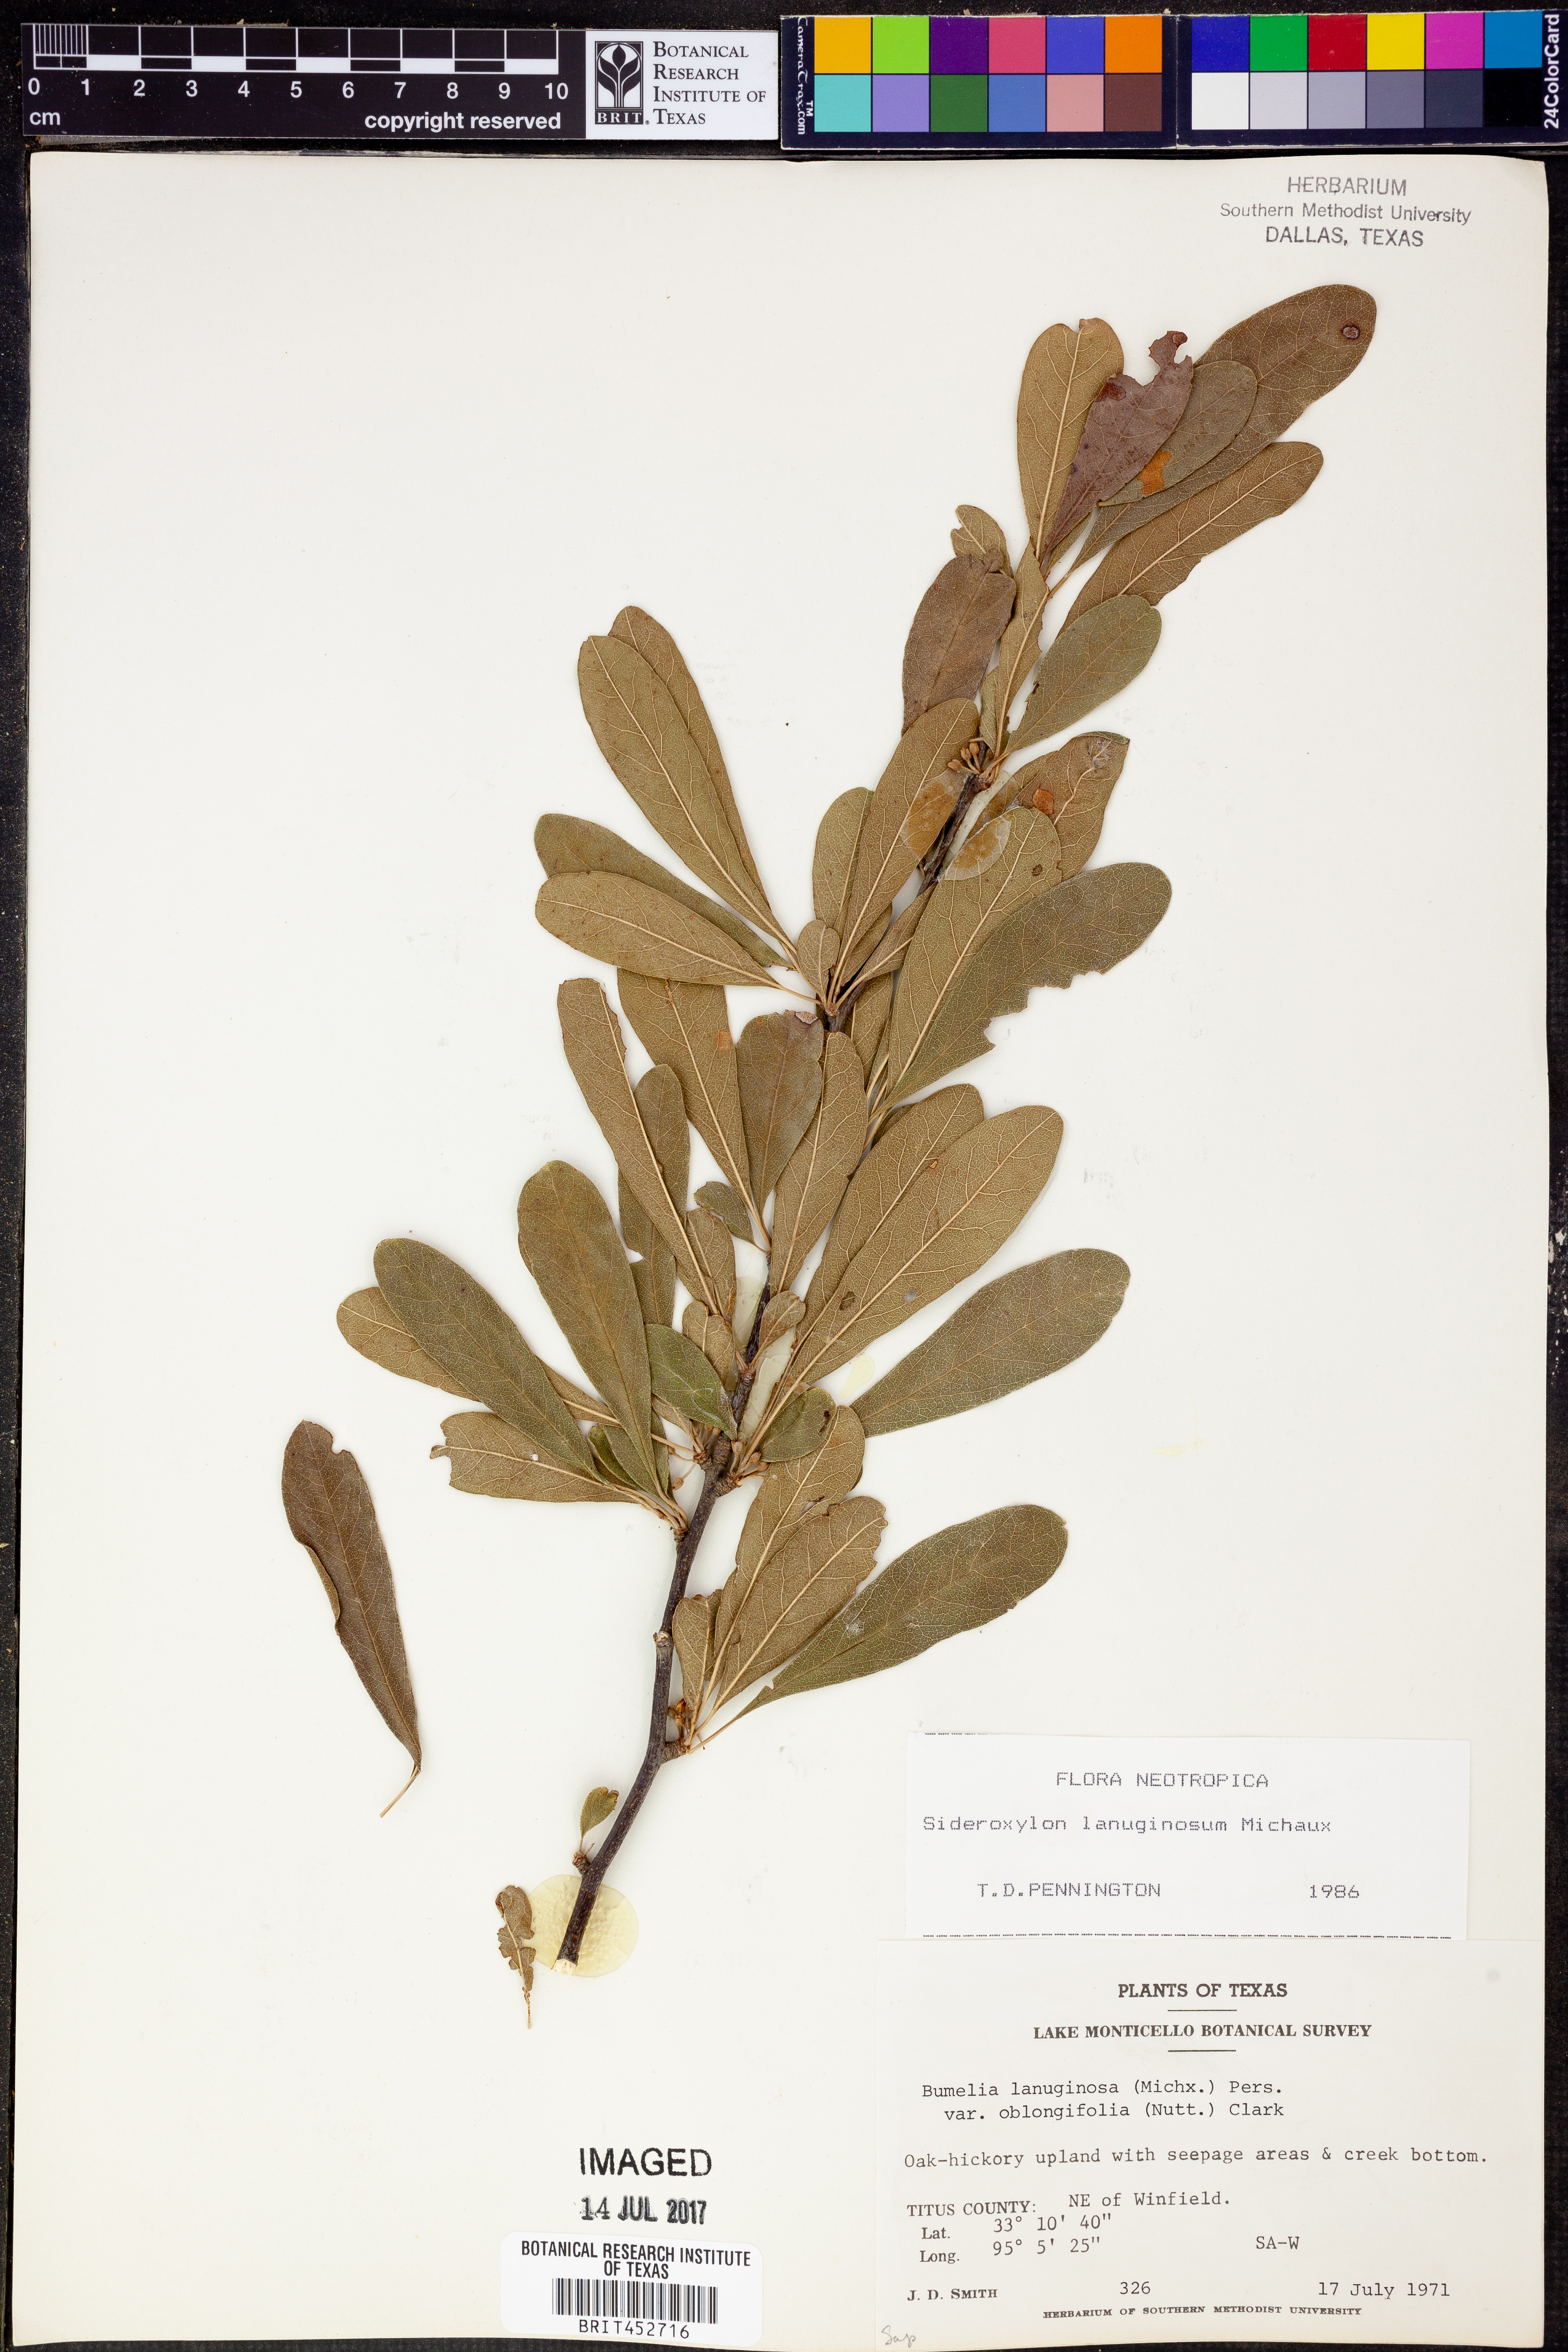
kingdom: Plantae
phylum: Tracheophyta
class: Magnoliopsida
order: Ericales
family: Sapotaceae
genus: Sideroxylon
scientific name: Sideroxylon lanuginosum
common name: Chittamwood
